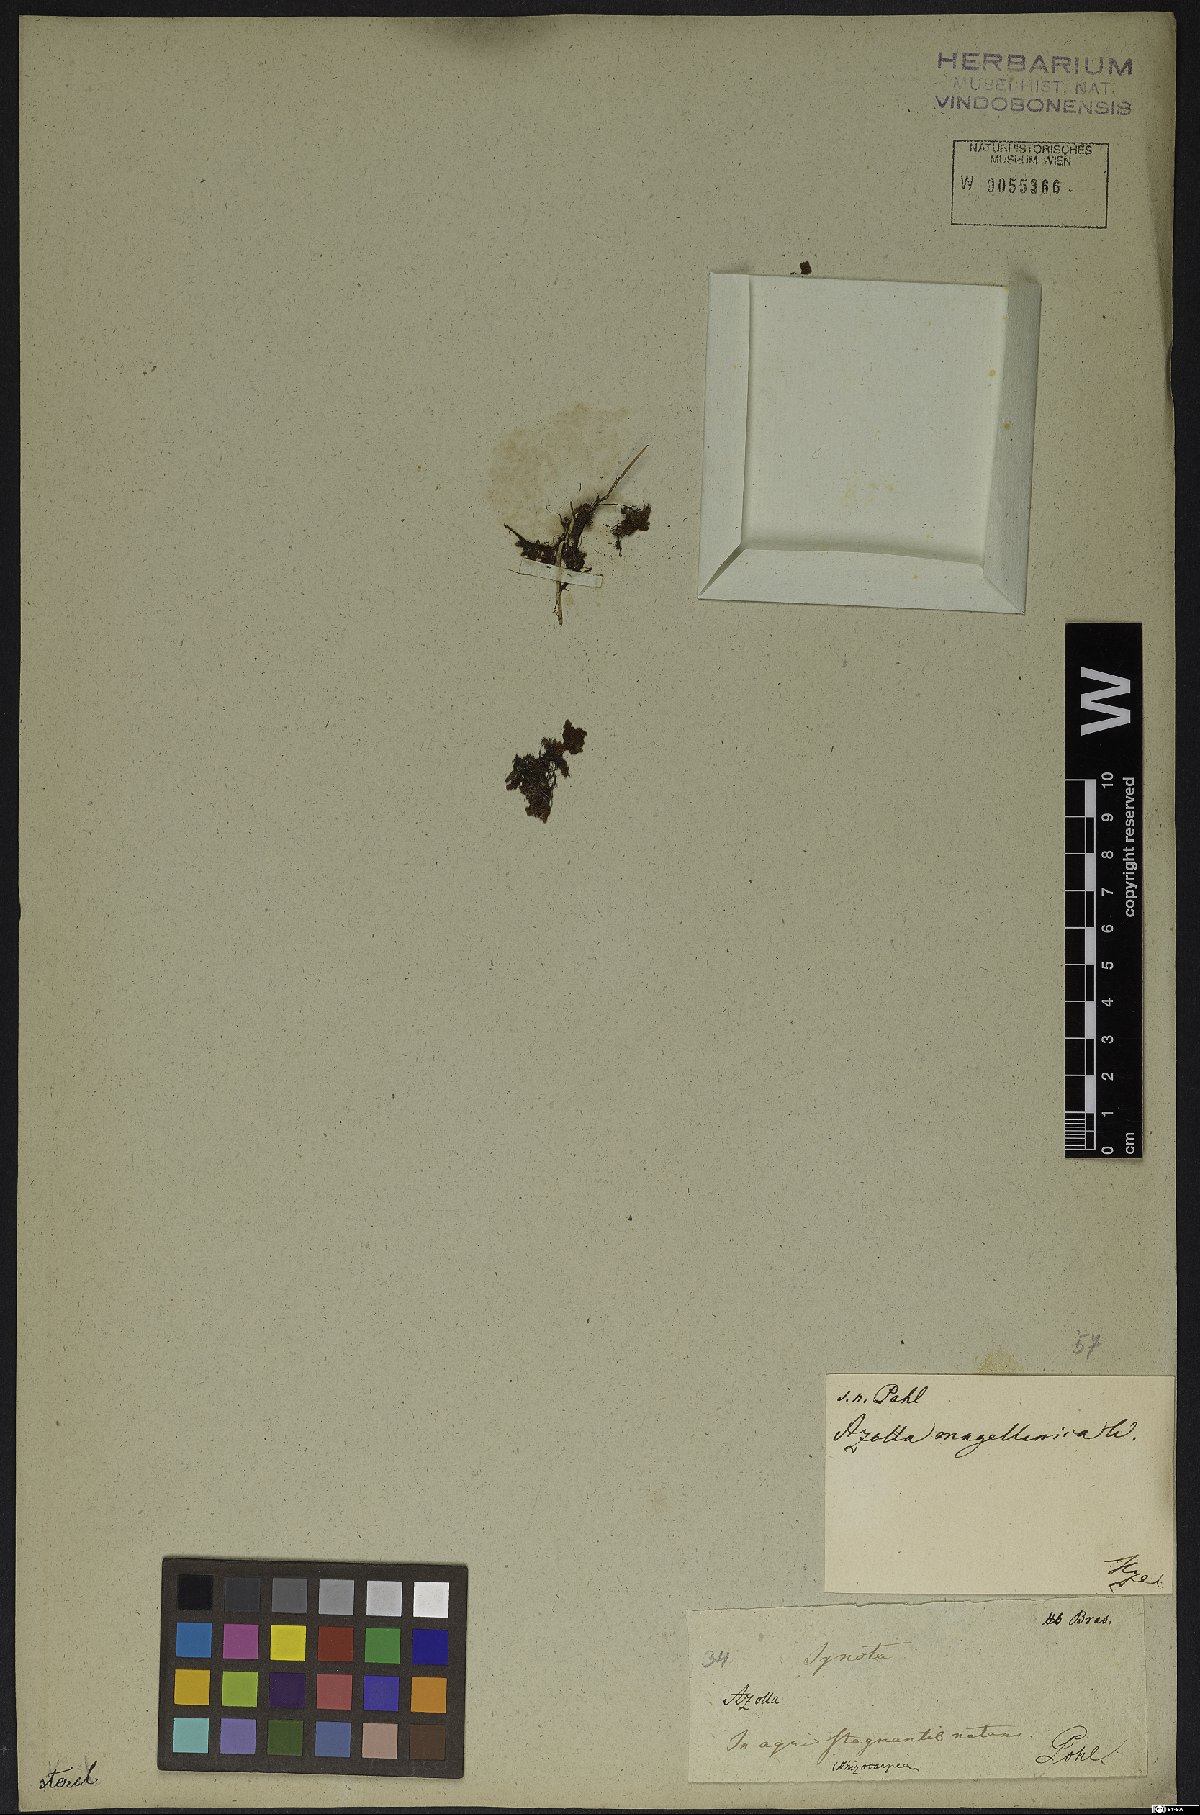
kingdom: Plantae
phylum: Tracheophyta
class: Polypodiopsida
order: Salviniales
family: Salviniaceae
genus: Azolla
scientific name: Azolla filiculoides
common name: Water fern
